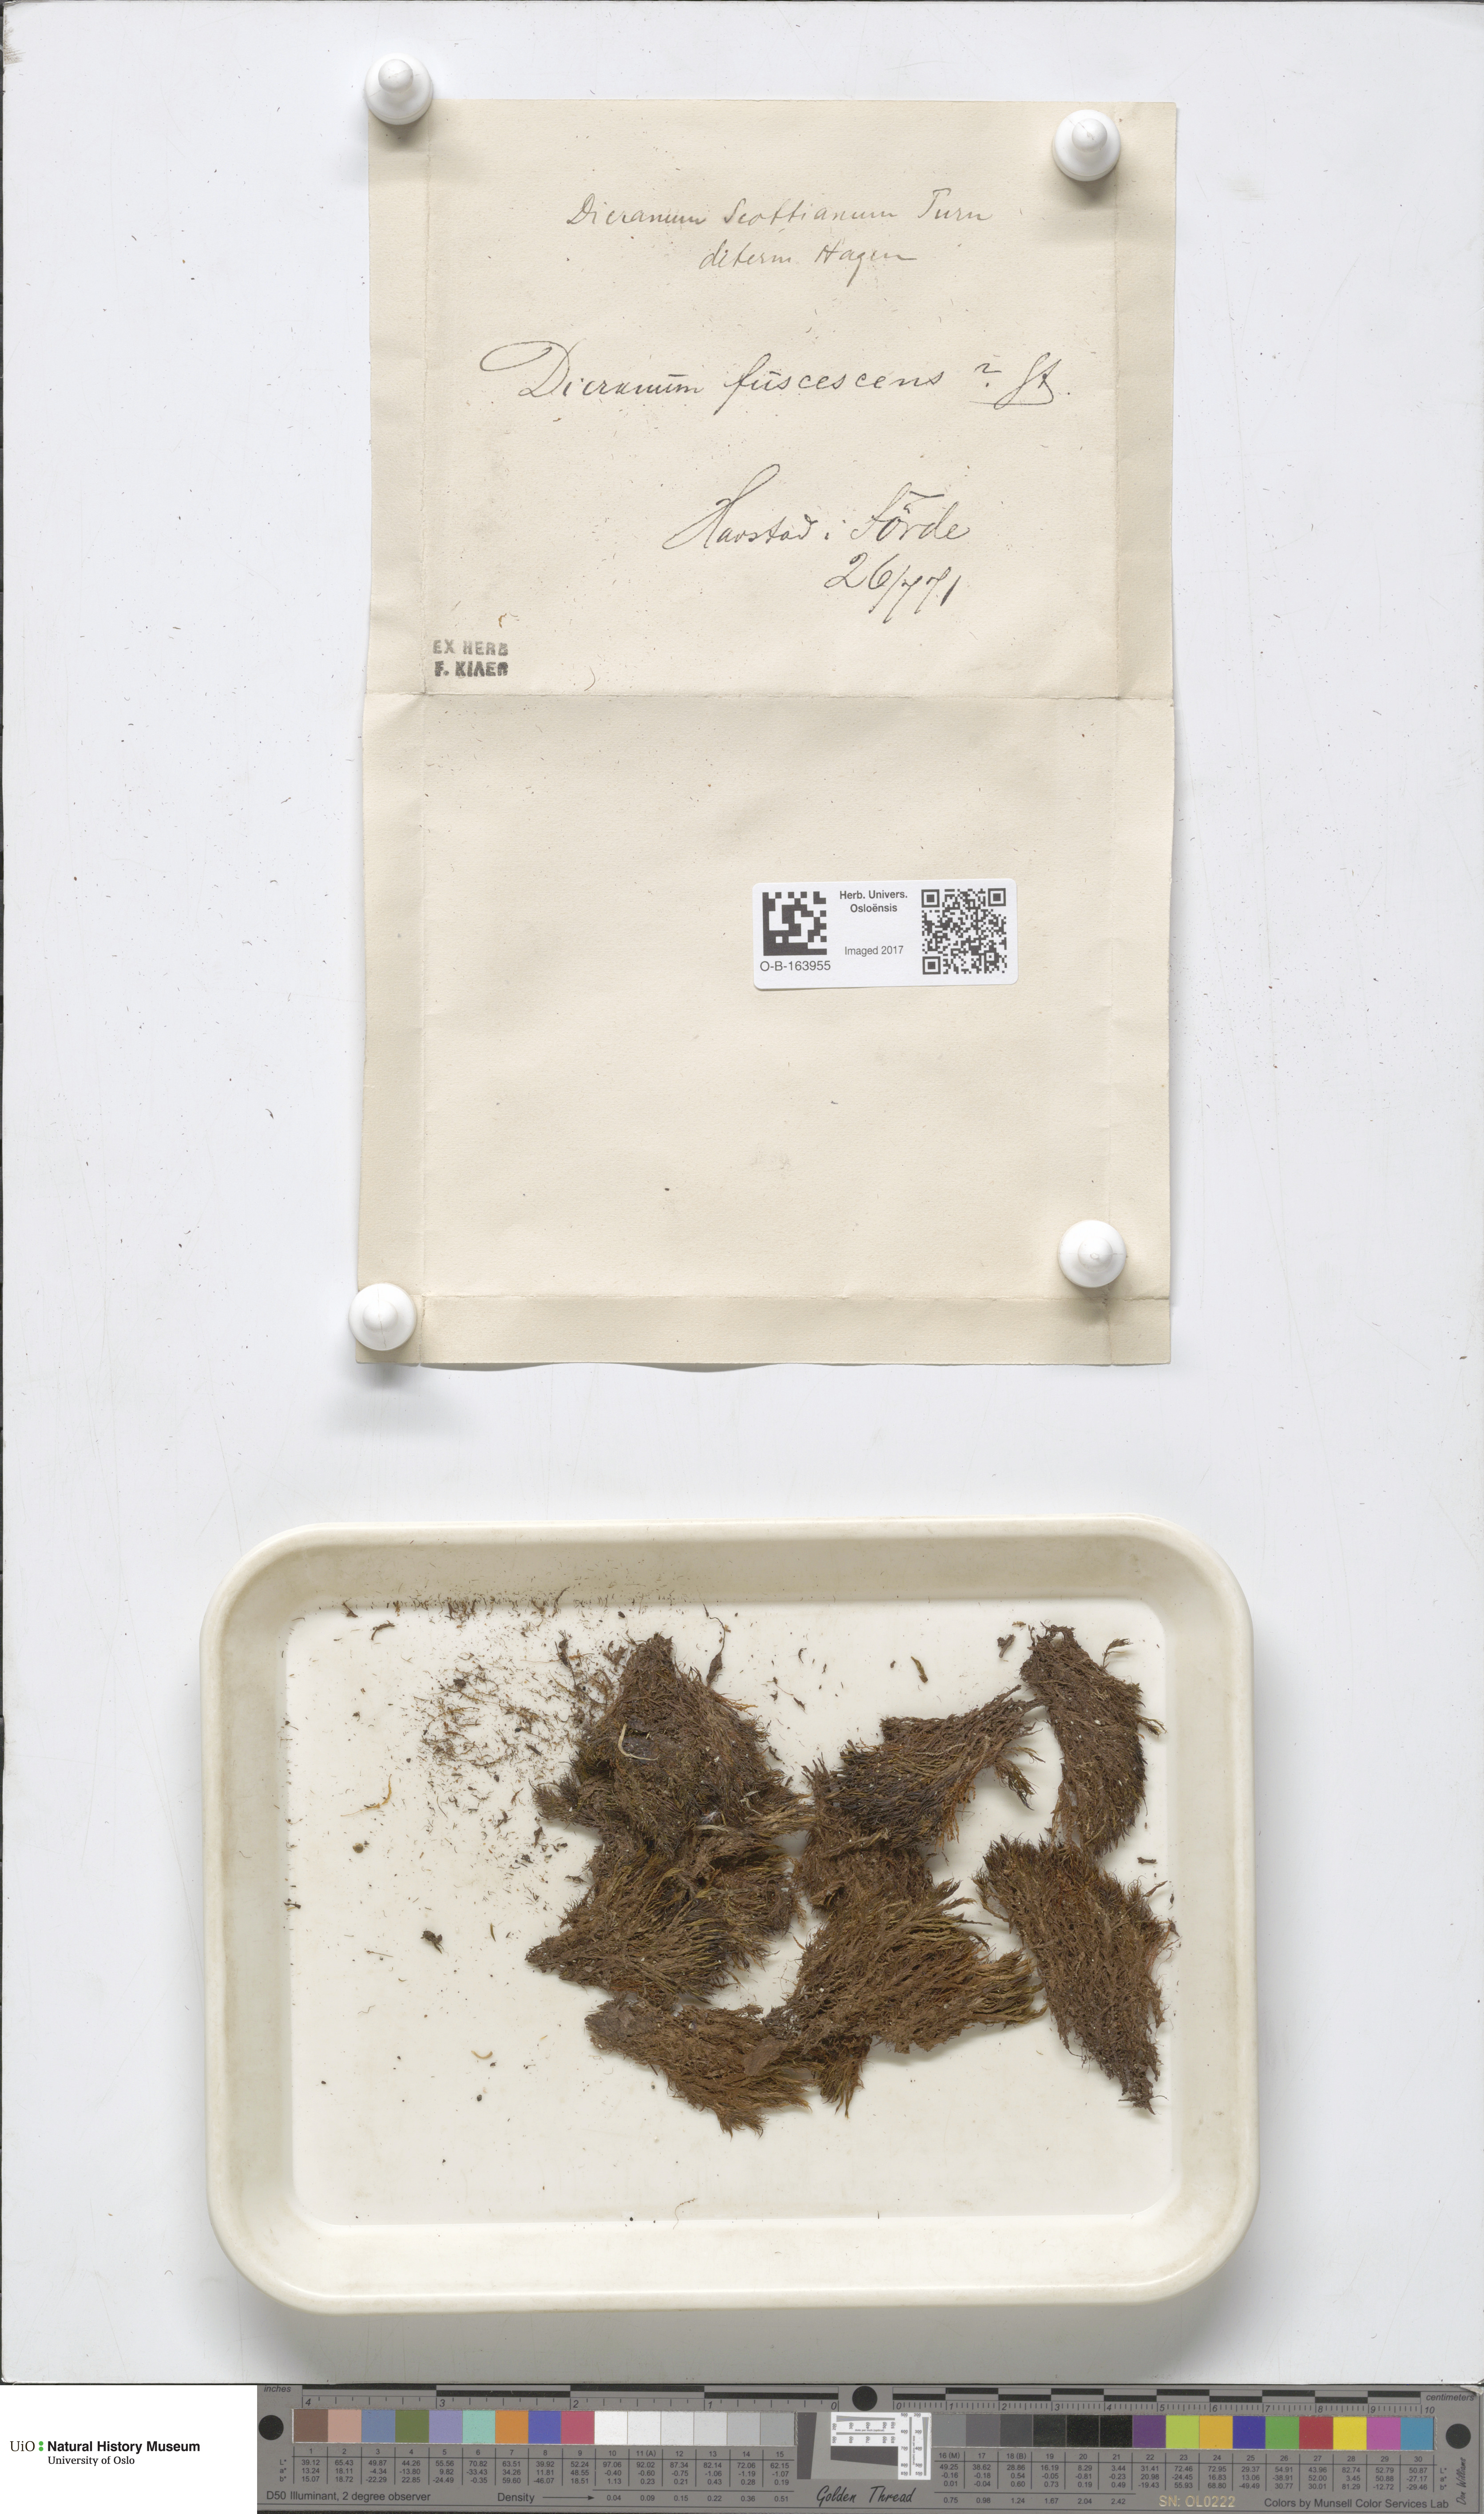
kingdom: Plantae
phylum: Bryophyta
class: Bryopsida
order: Dicranales
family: Dicranaceae
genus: Dicranum
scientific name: Dicranum scottianum
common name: Scott's fork-moss
